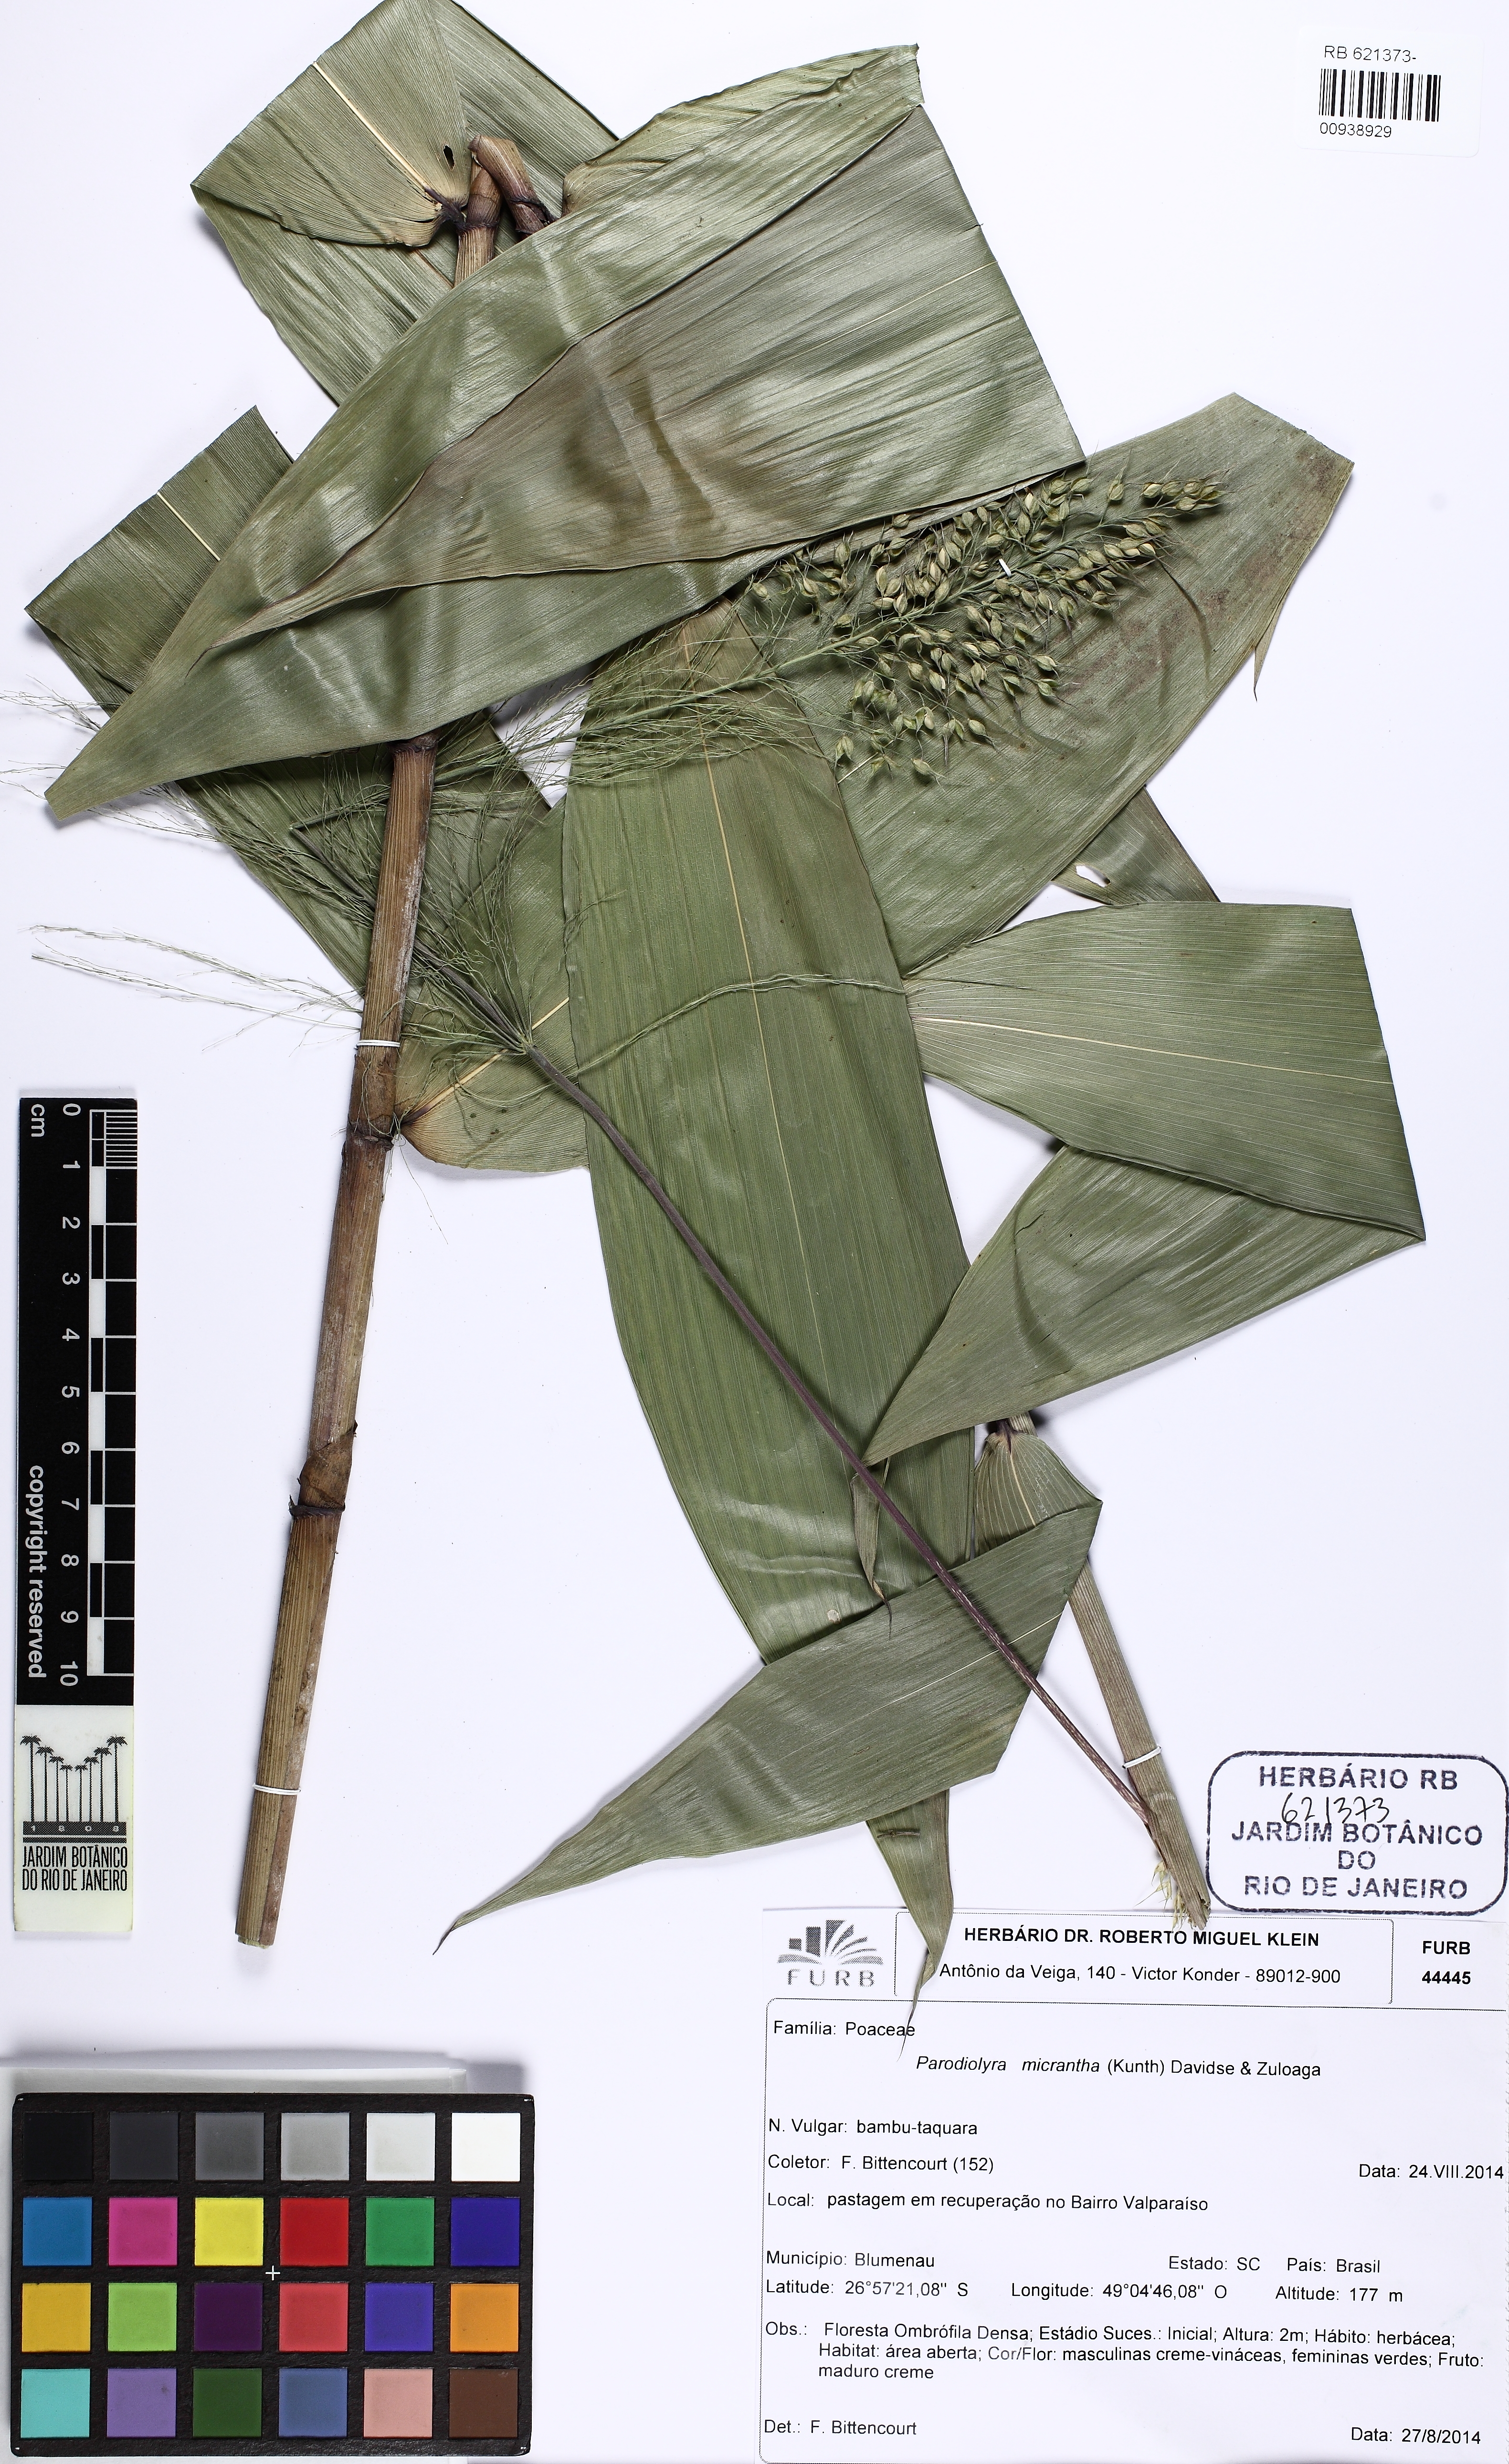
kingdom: Plantae
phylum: Tracheophyta
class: Liliopsida
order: Poales
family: Poaceae
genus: Taquara
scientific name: Taquara micrantha
